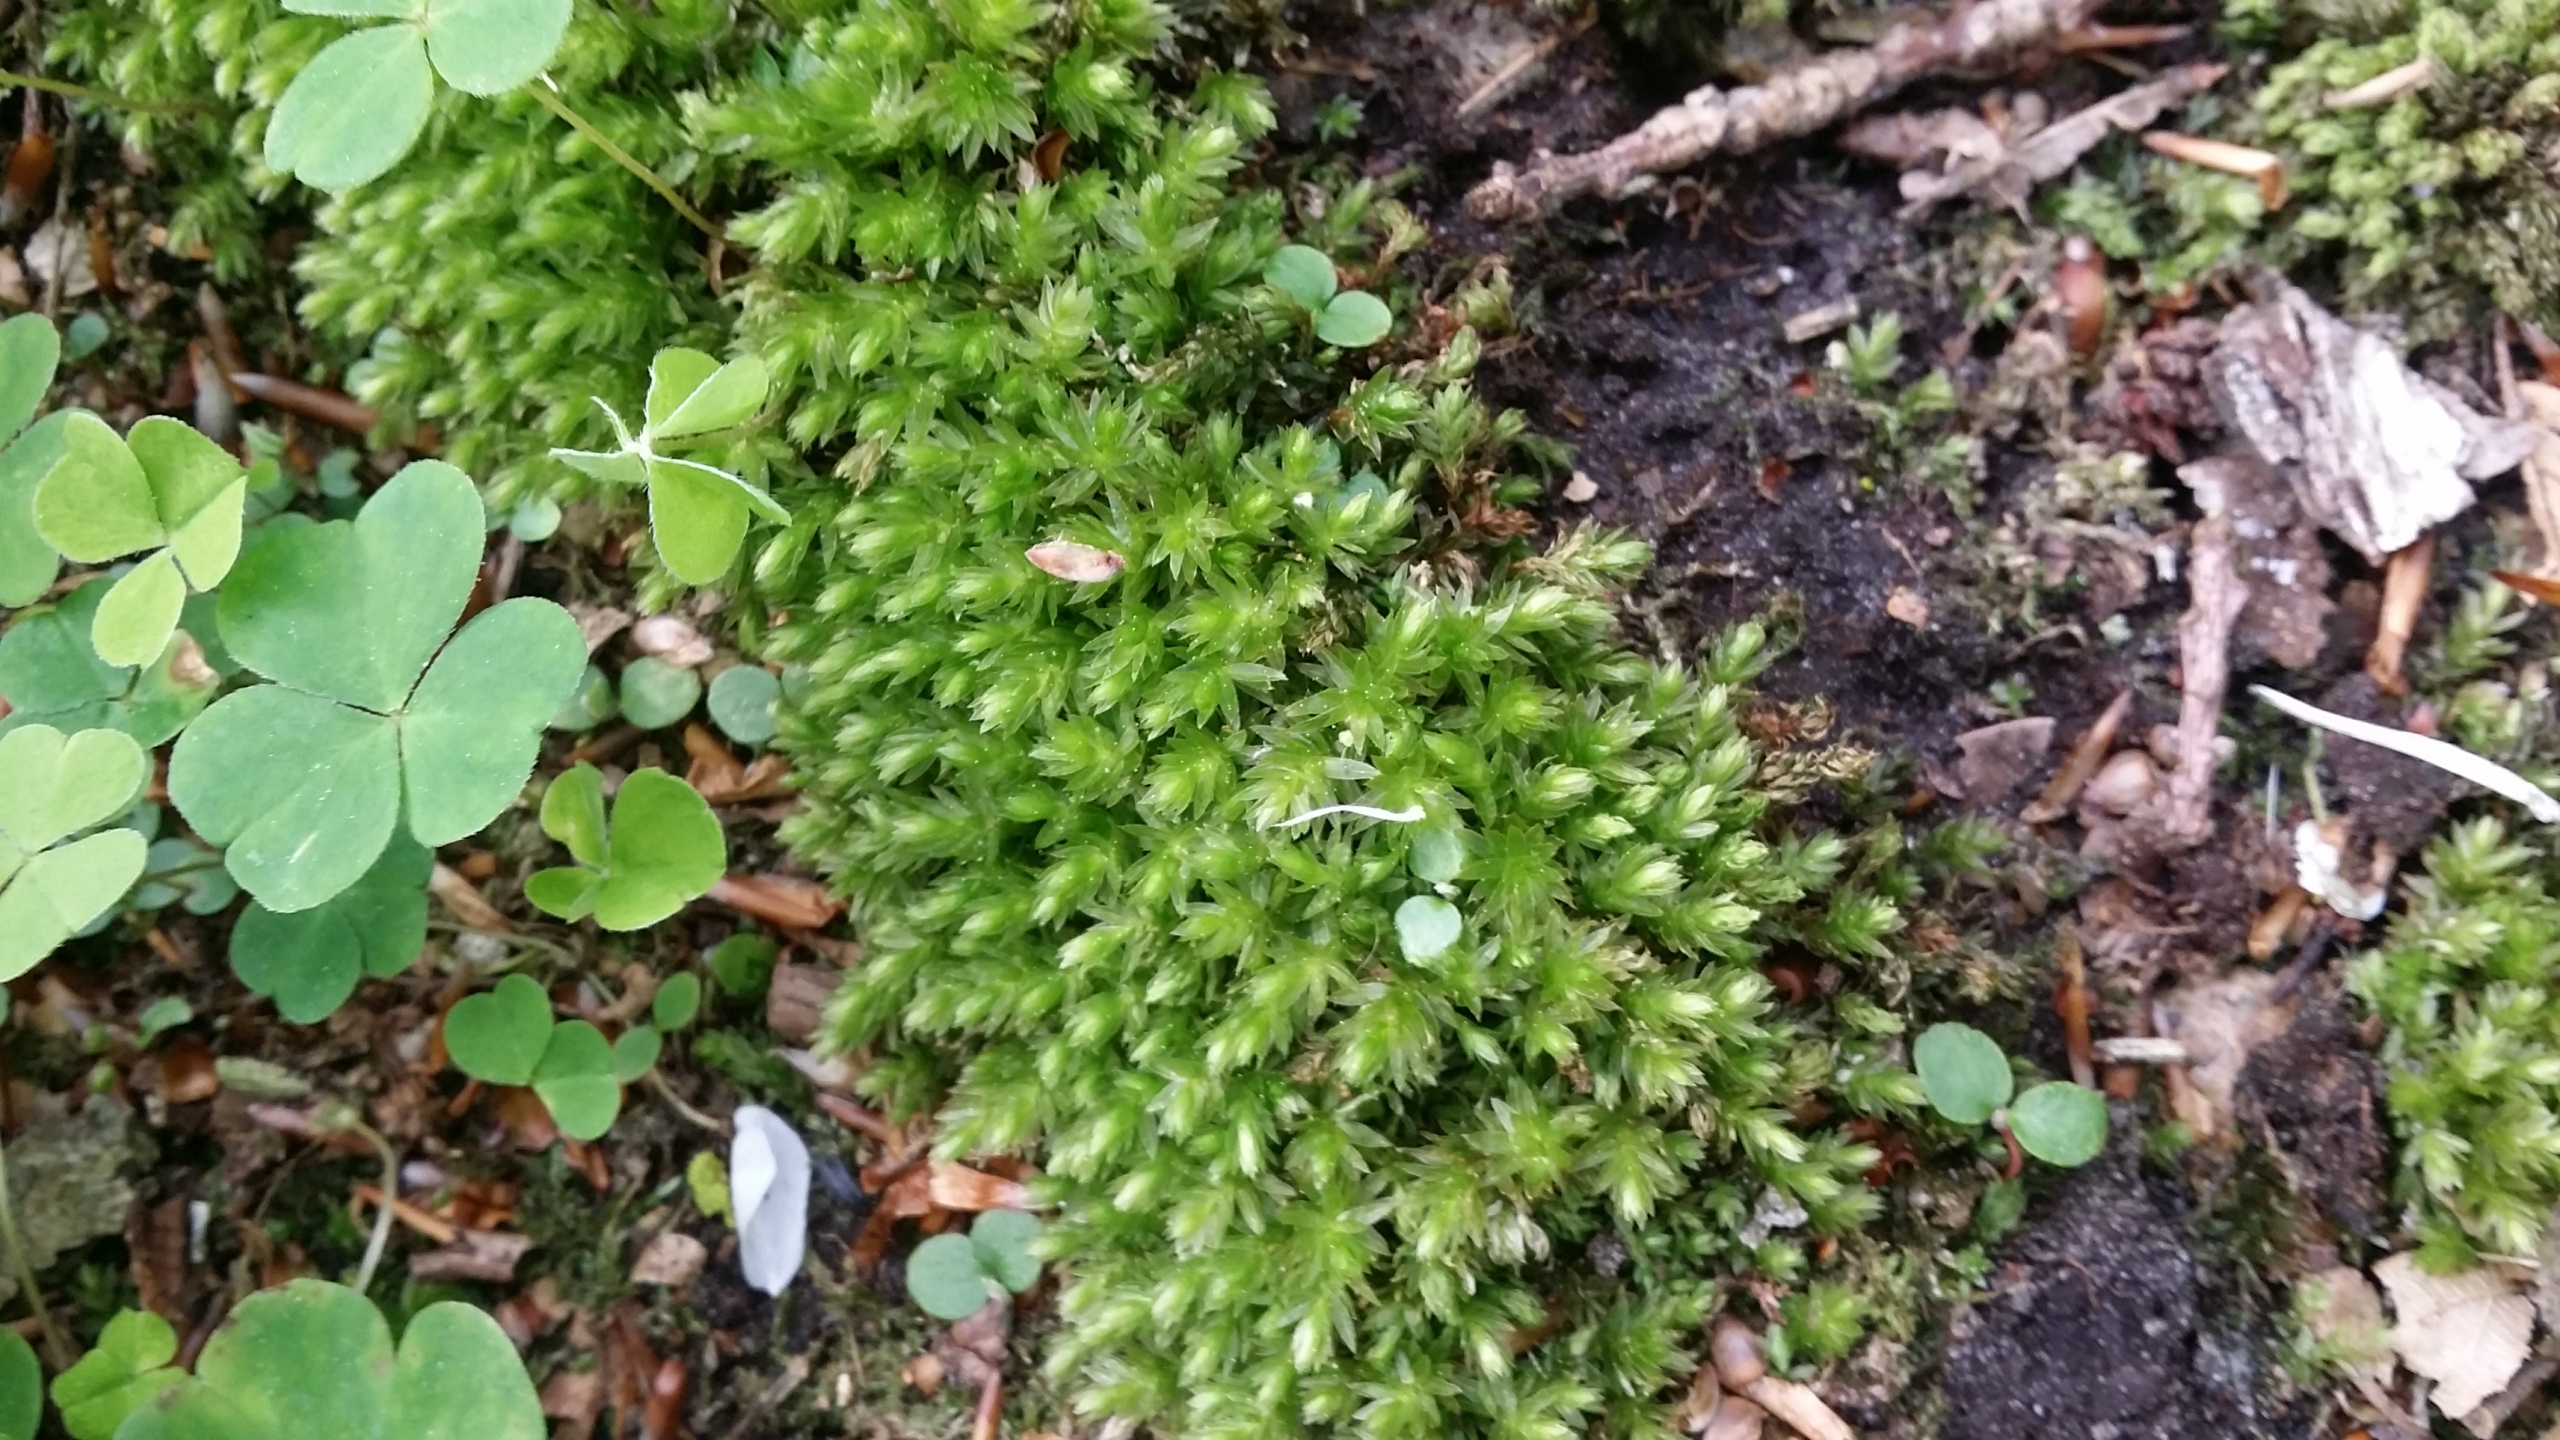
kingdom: Plantae
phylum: Bryophyta
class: Bryopsida
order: Bryales
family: Mniaceae
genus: Mnium
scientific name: Mnium hornum
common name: Brunfiltet stjernemos
